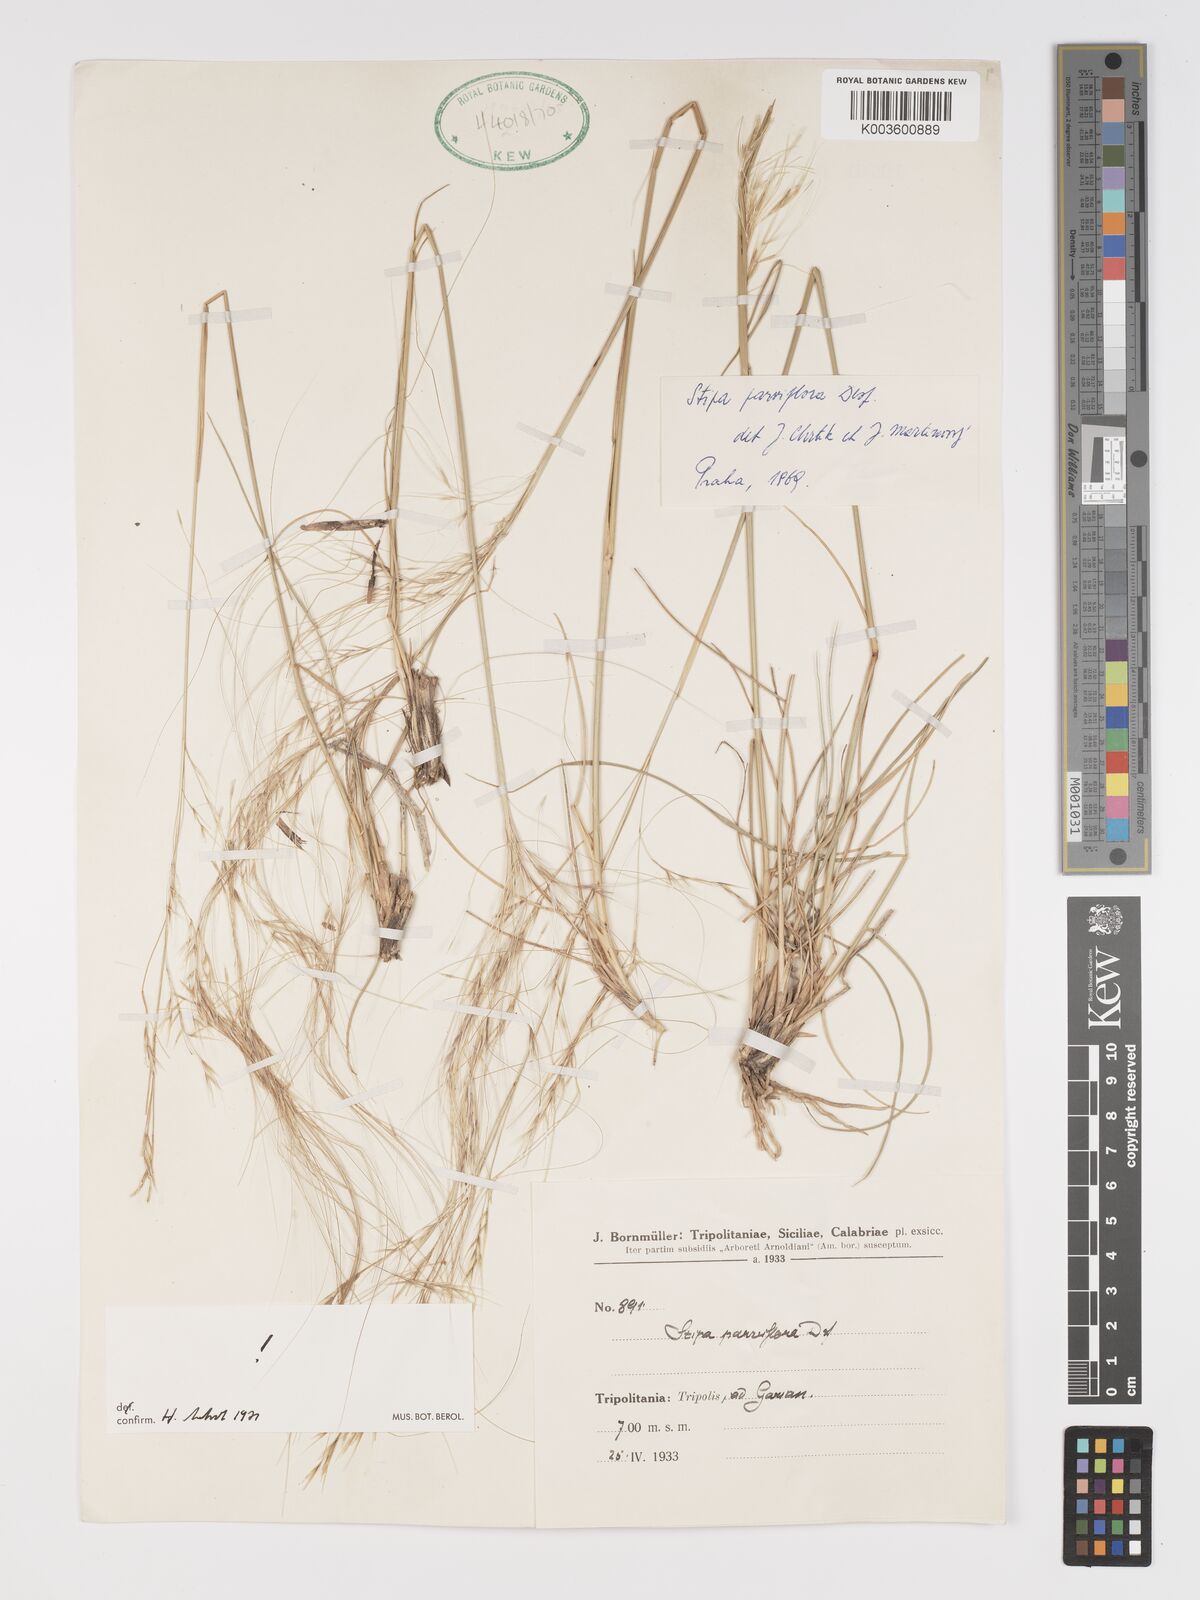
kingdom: Plantae
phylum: Tracheophyta
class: Liliopsida
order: Poales
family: Poaceae
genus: Achnatherum
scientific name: Achnatherum parviflorum
